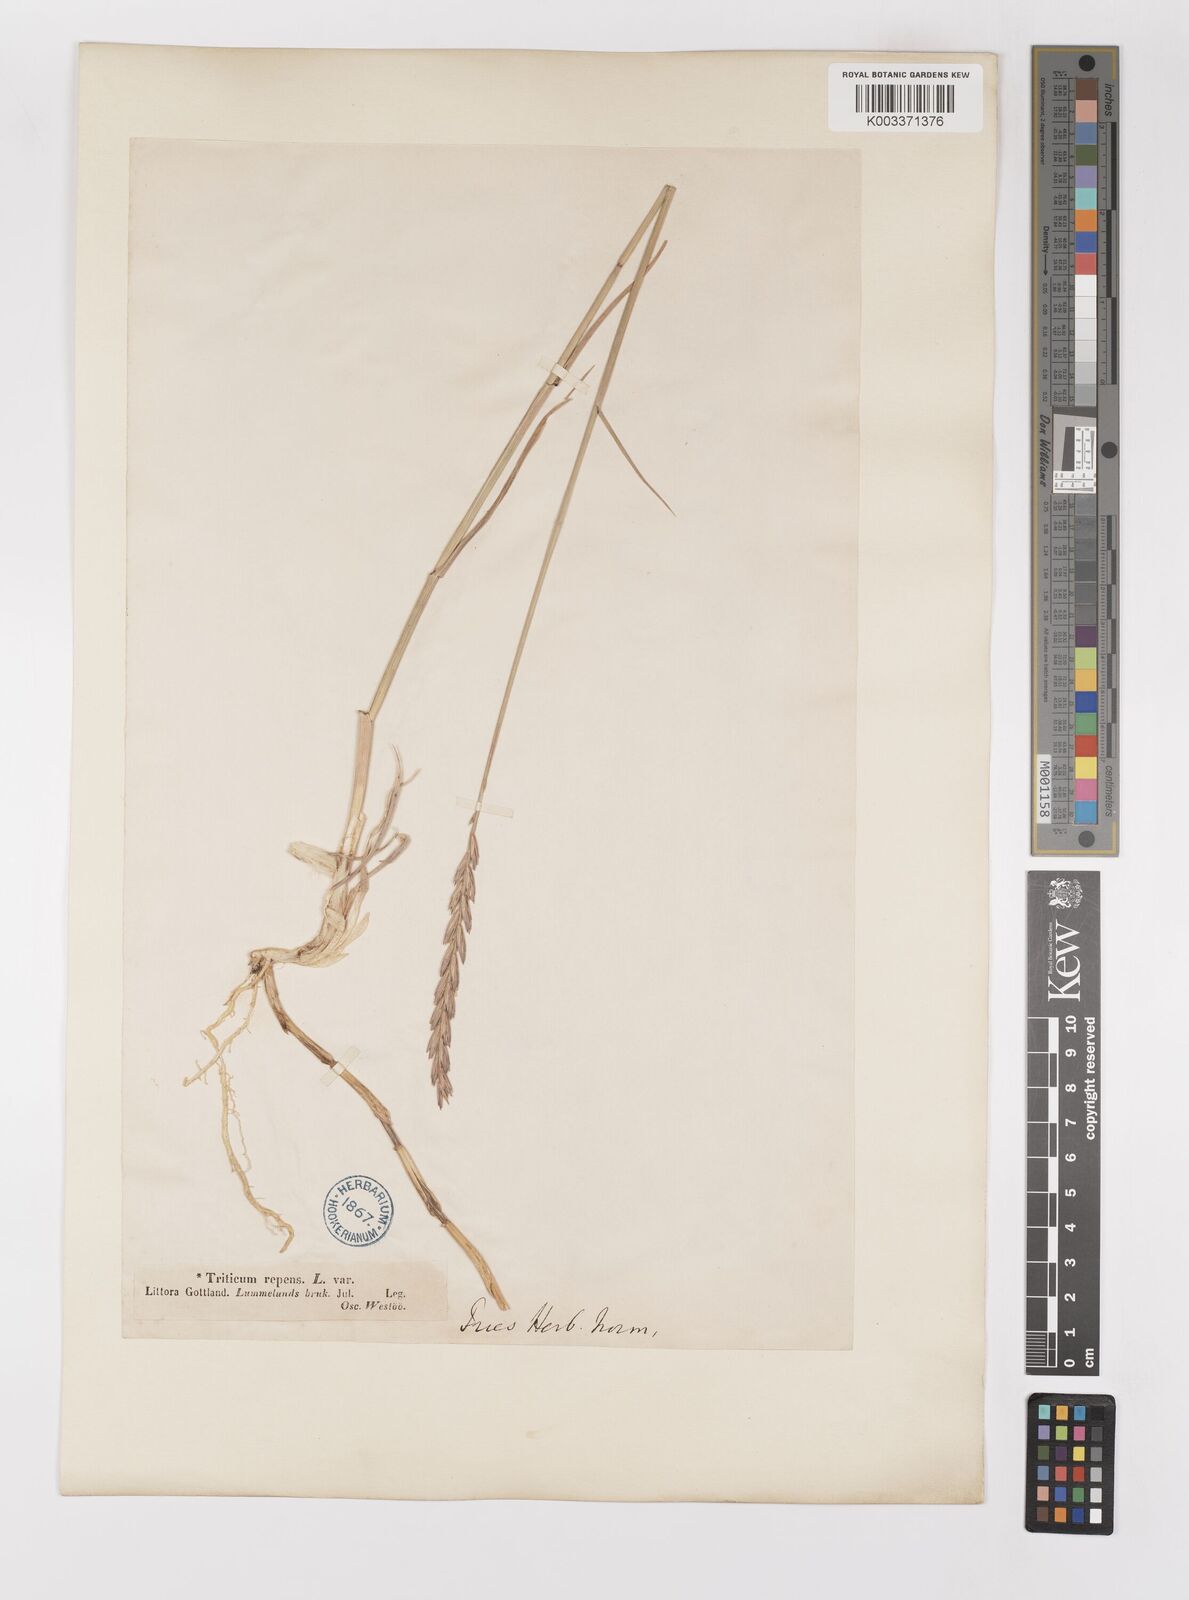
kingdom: Plantae
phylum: Tracheophyta
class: Liliopsida
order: Poales
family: Poaceae
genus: Elymus
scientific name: Elymus repens
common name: Quackgrass
